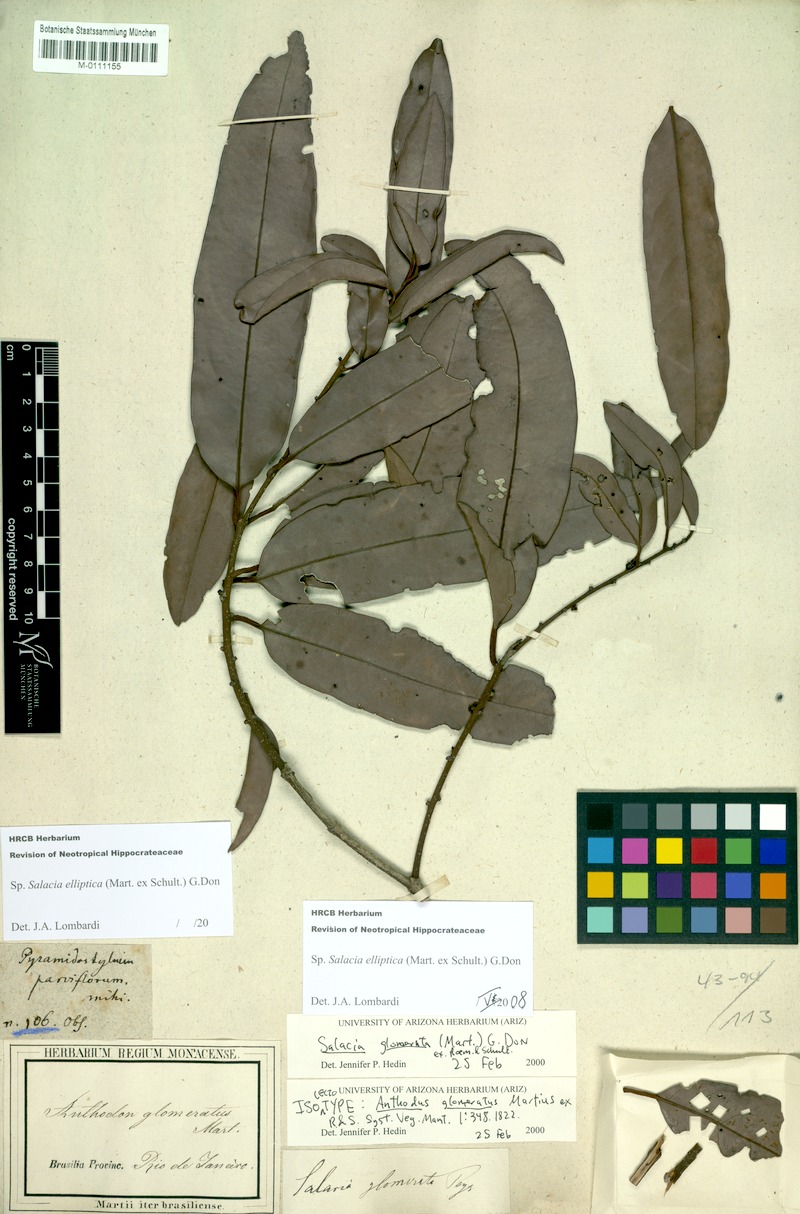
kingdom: Plantae
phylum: Tracheophyta
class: Magnoliopsida
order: Celastrales
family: Celastraceae
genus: Salacia
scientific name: Salacia elliptica
